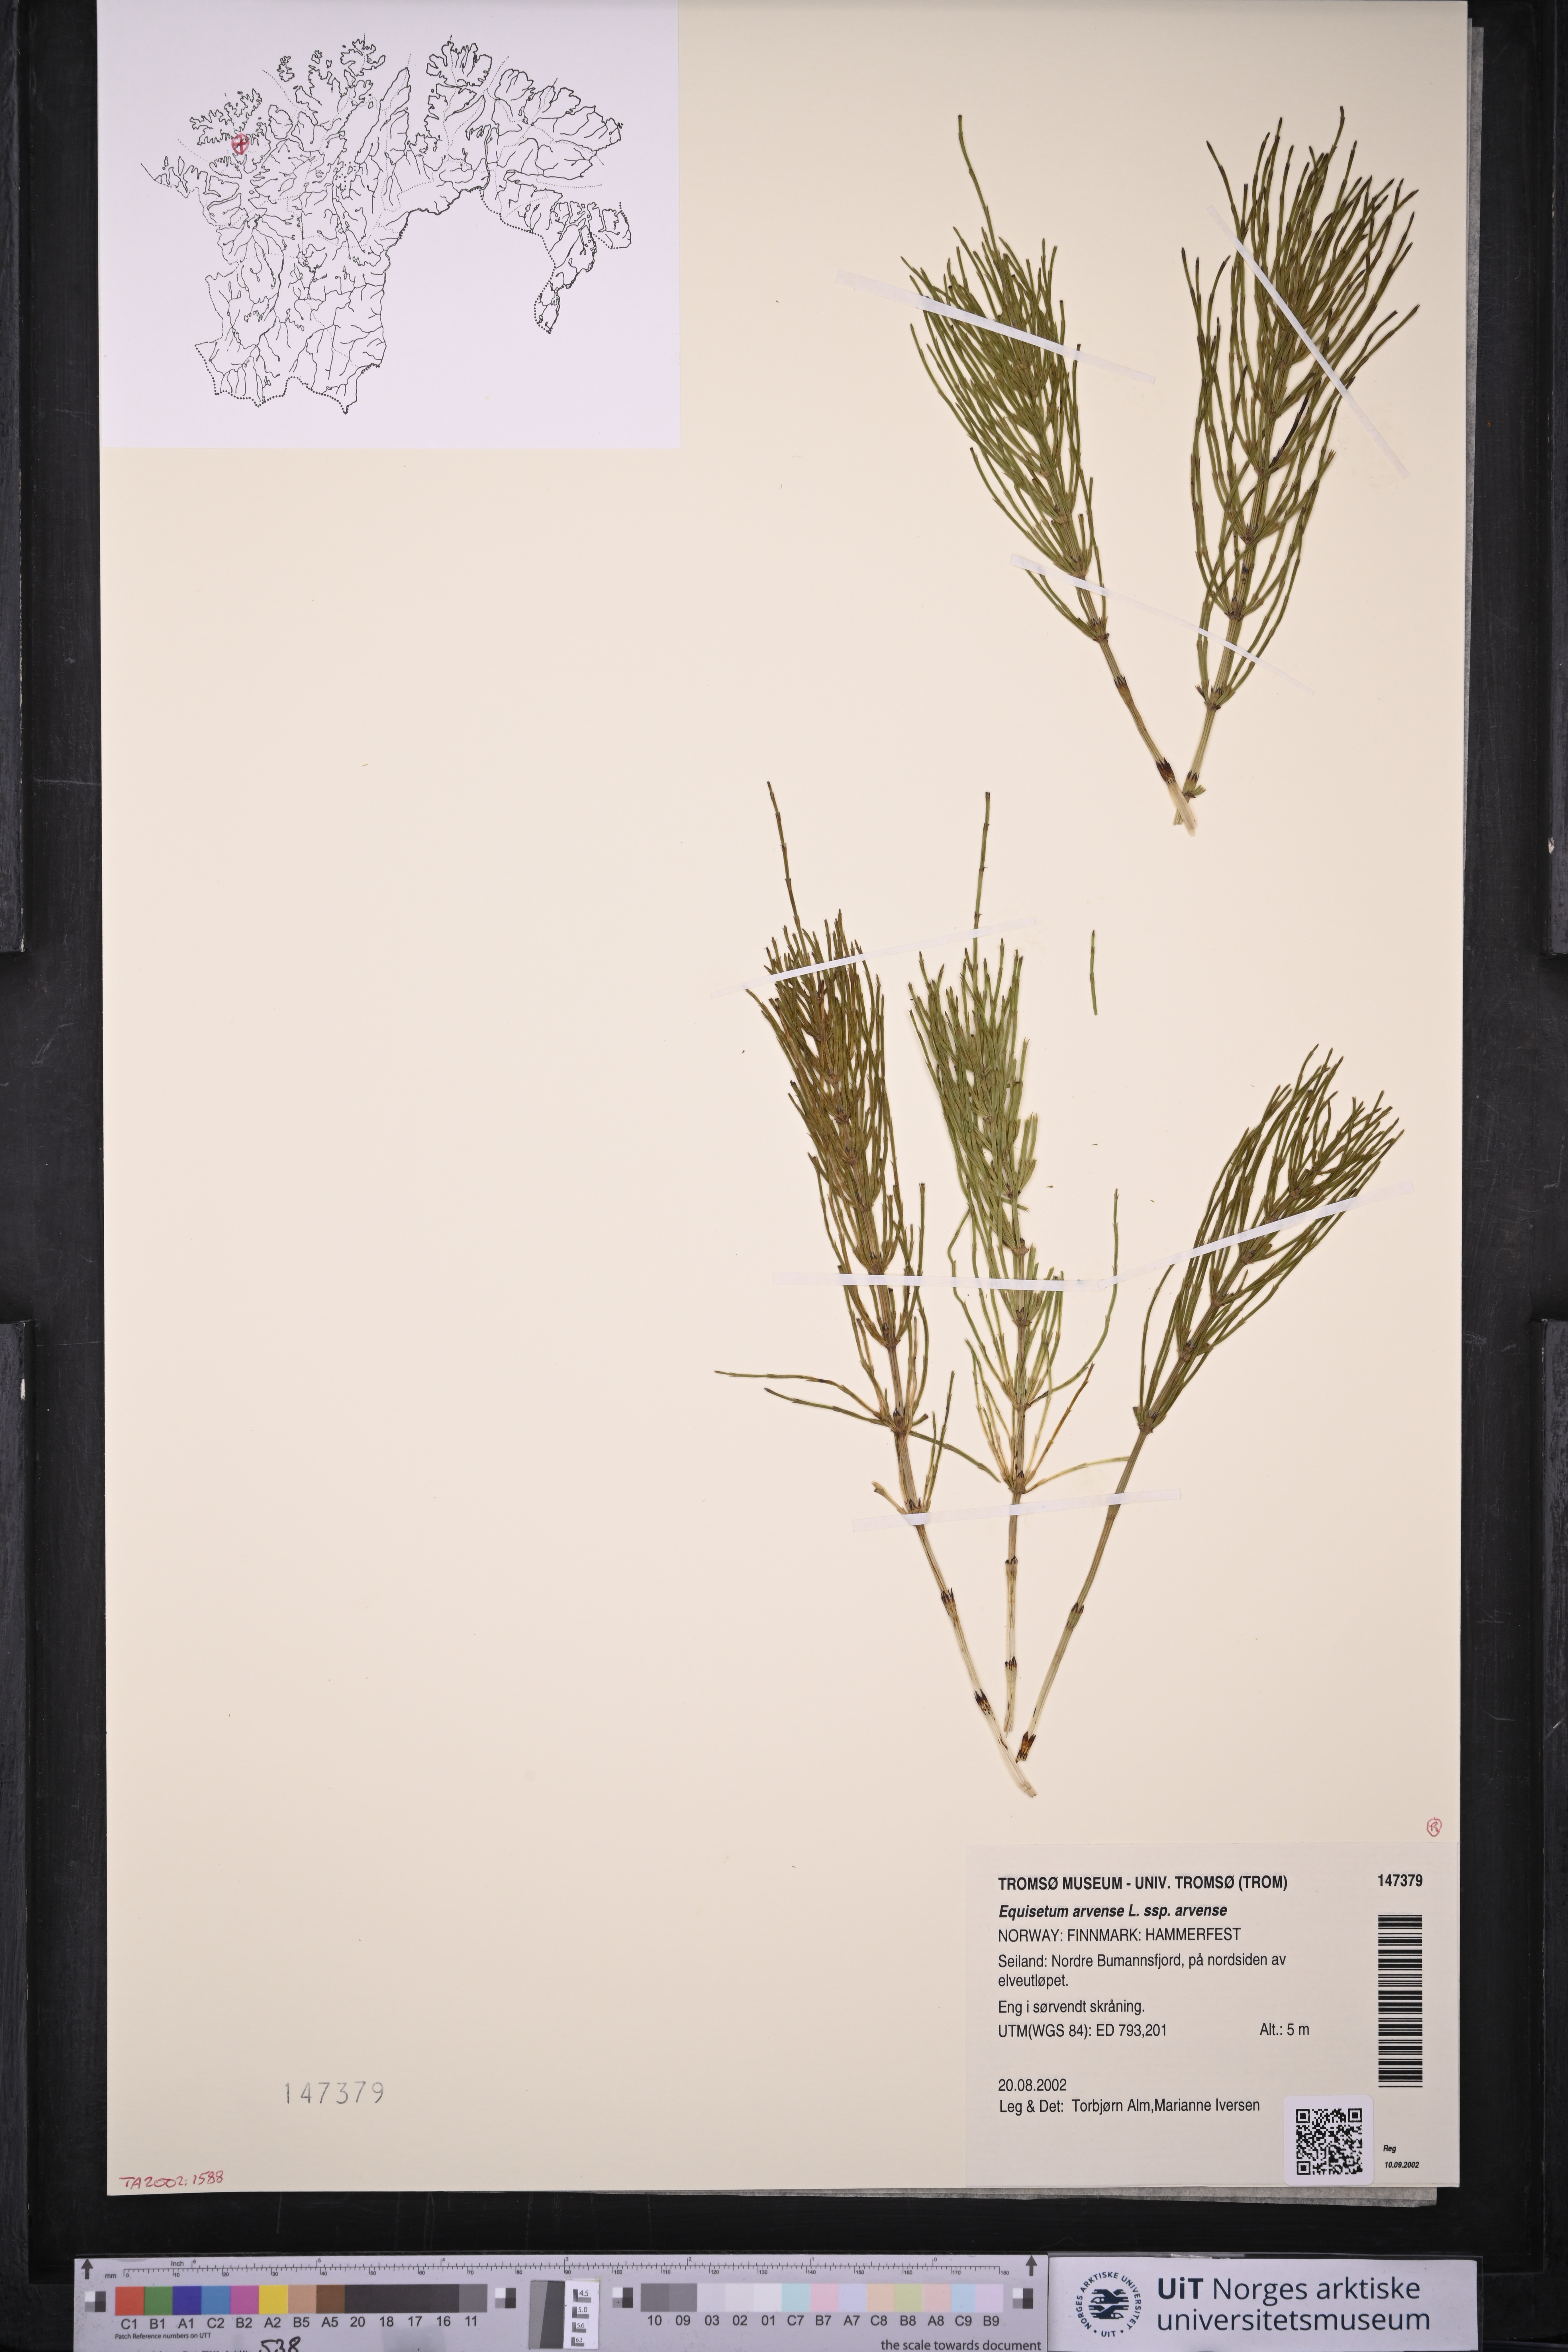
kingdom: Plantae
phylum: Tracheophyta
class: Polypodiopsida
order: Equisetales
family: Equisetaceae
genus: Equisetum
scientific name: Equisetum arvense
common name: Field horsetail
